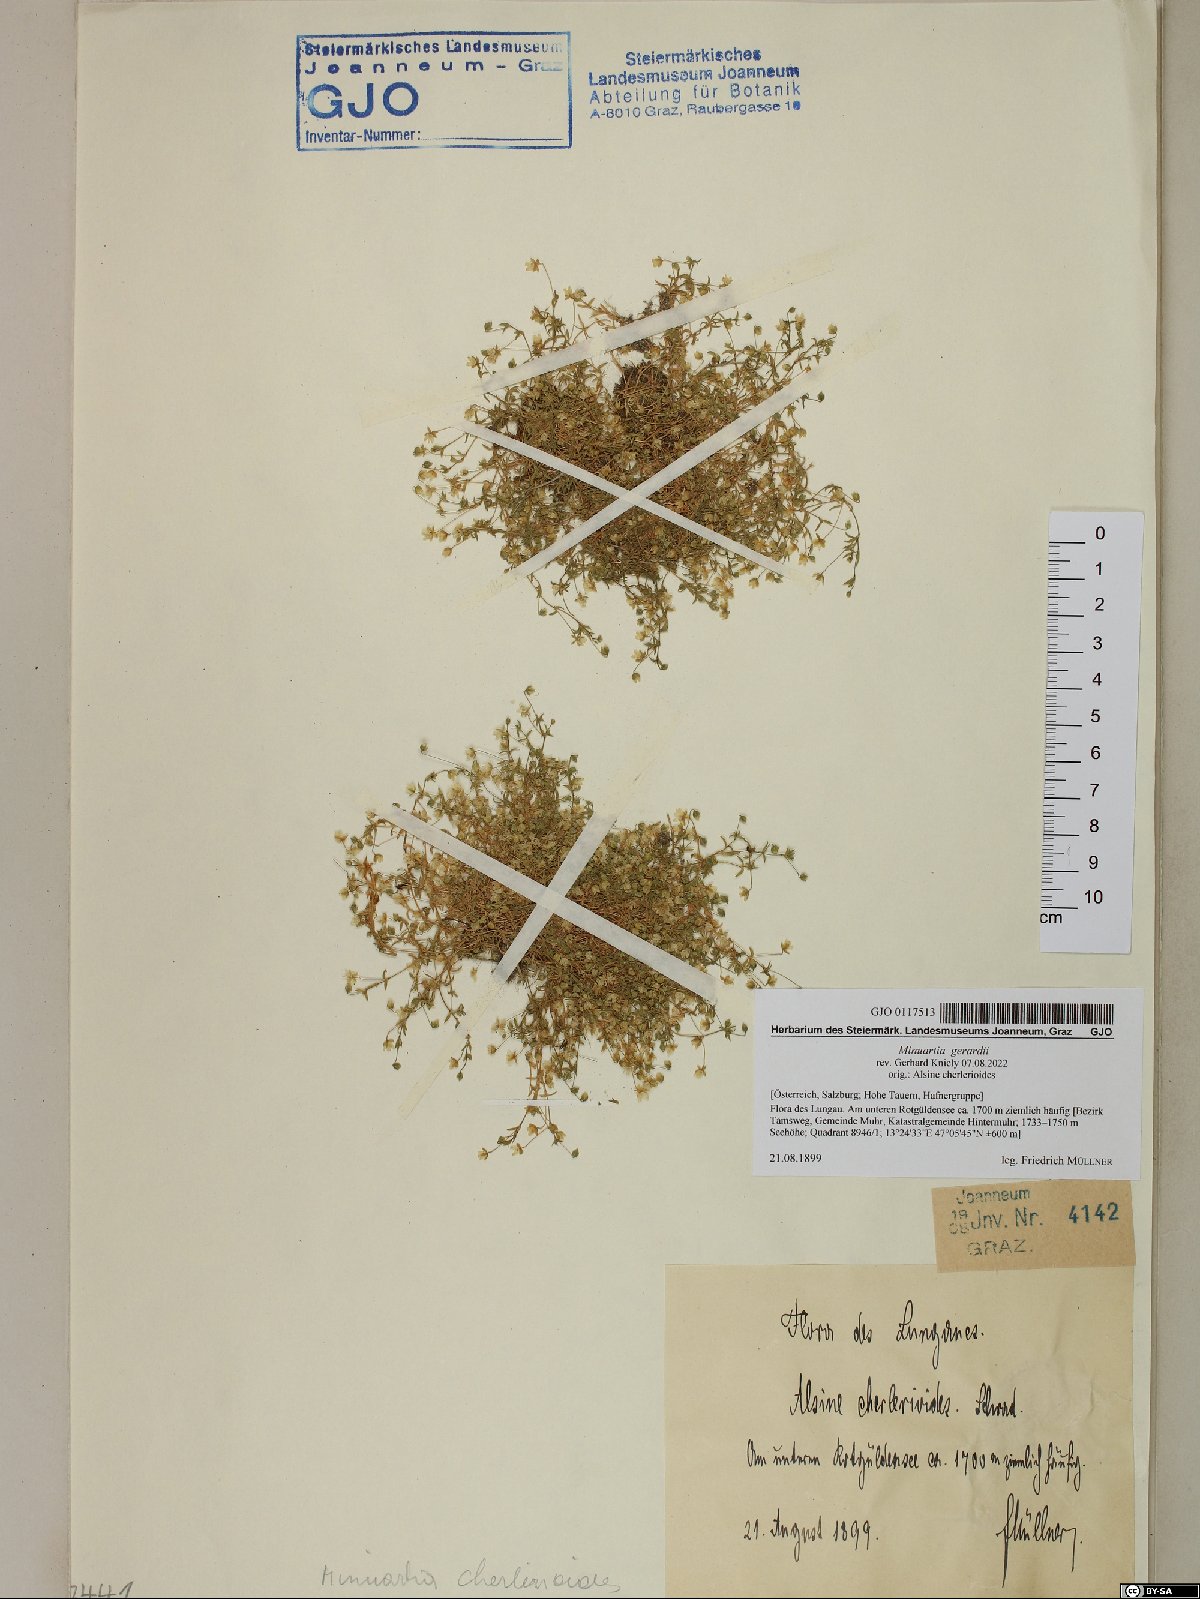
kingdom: Plantae
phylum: Tracheophyta
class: Magnoliopsida
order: Caryophyllales
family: Caryophyllaceae
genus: Sabulina
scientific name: Sabulina verna
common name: Spring sandwort
